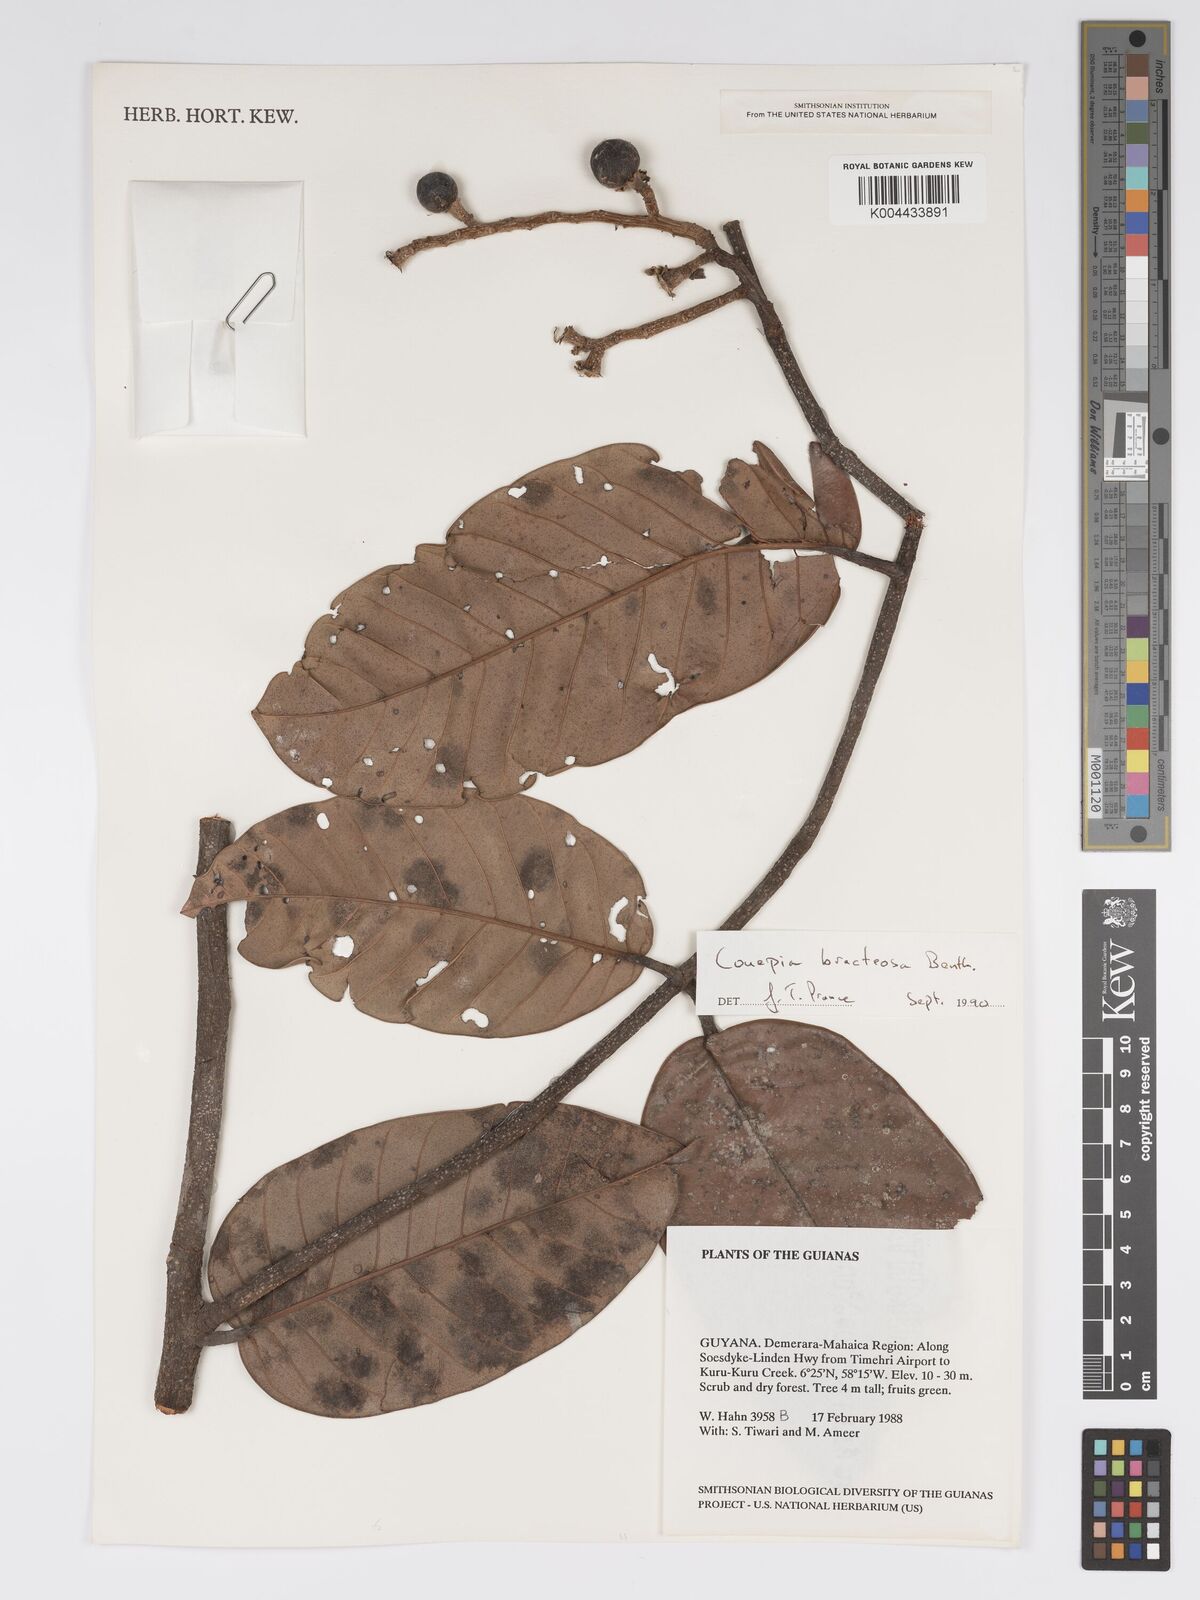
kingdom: Plantae
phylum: Tracheophyta
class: Magnoliopsida
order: Malpighiales
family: Chrysobalanaceae
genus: Couepia
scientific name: Couepia bracteosa
